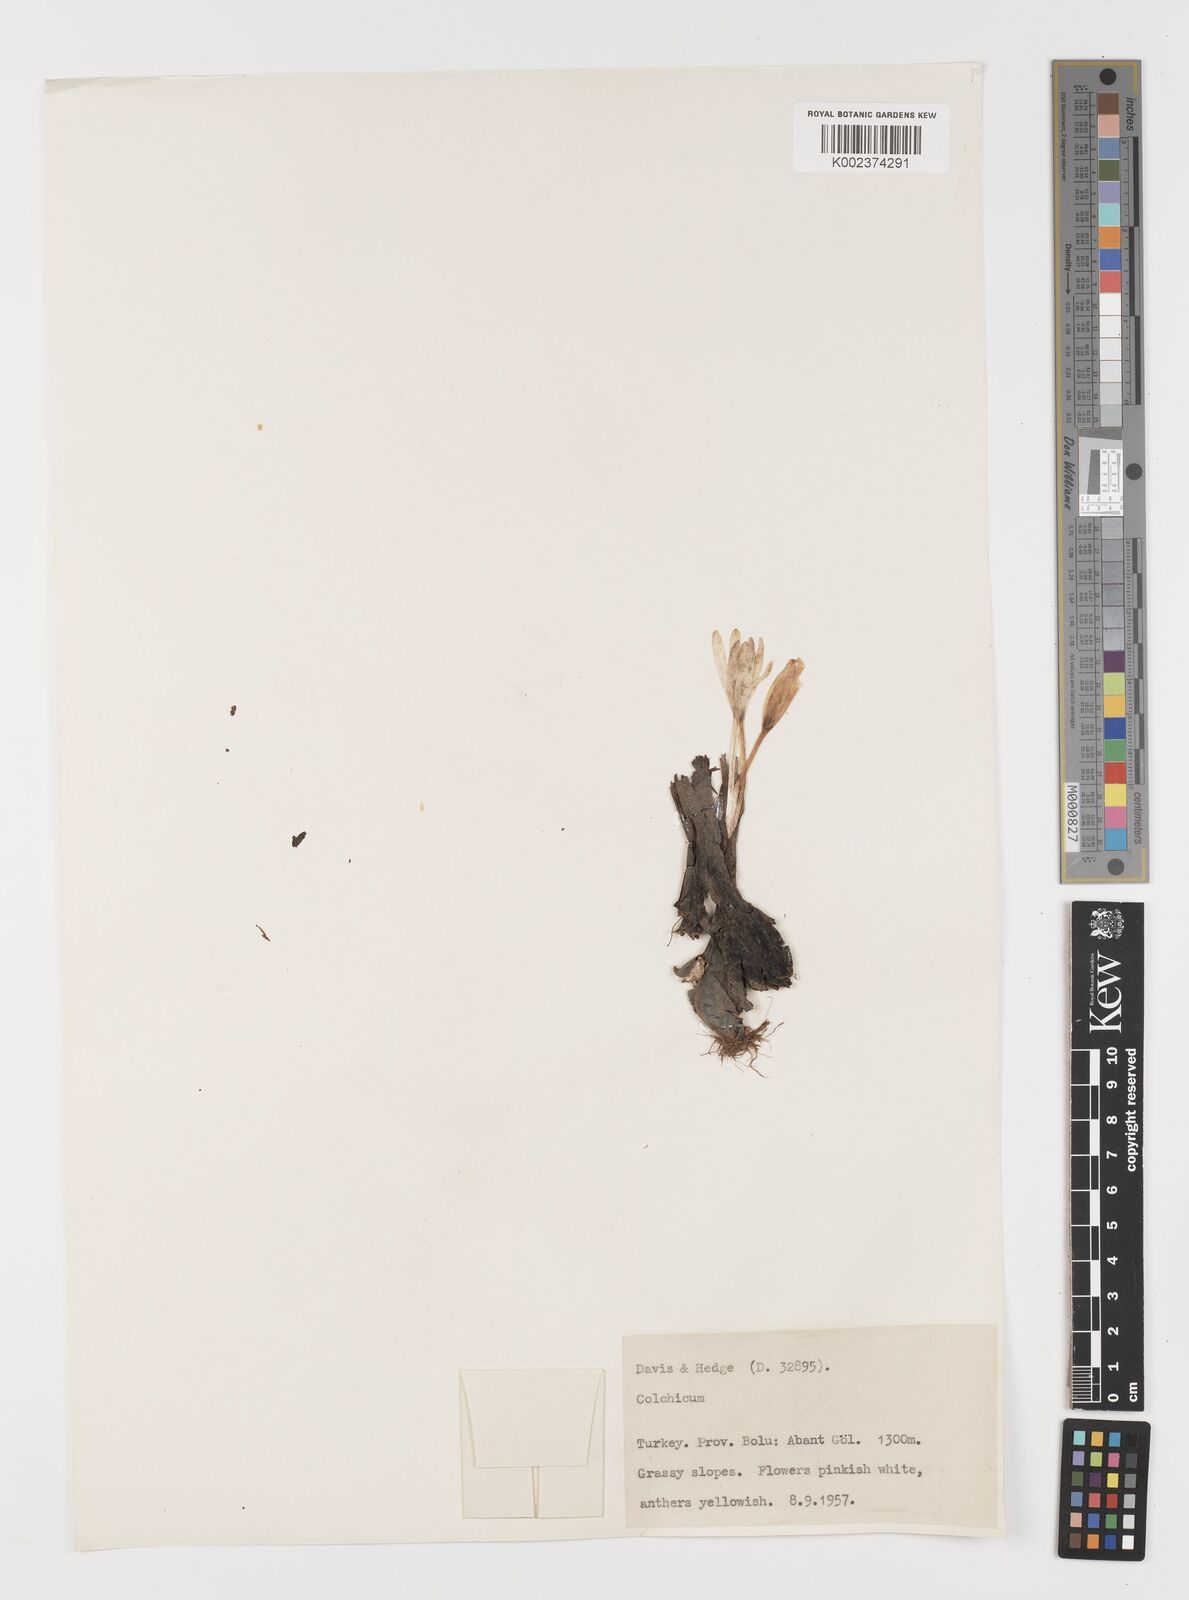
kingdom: Plantae
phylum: Tracheophyta
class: Liliopsida
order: Liliales
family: Colchicaceae
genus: Colchicum
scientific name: Colchicum
